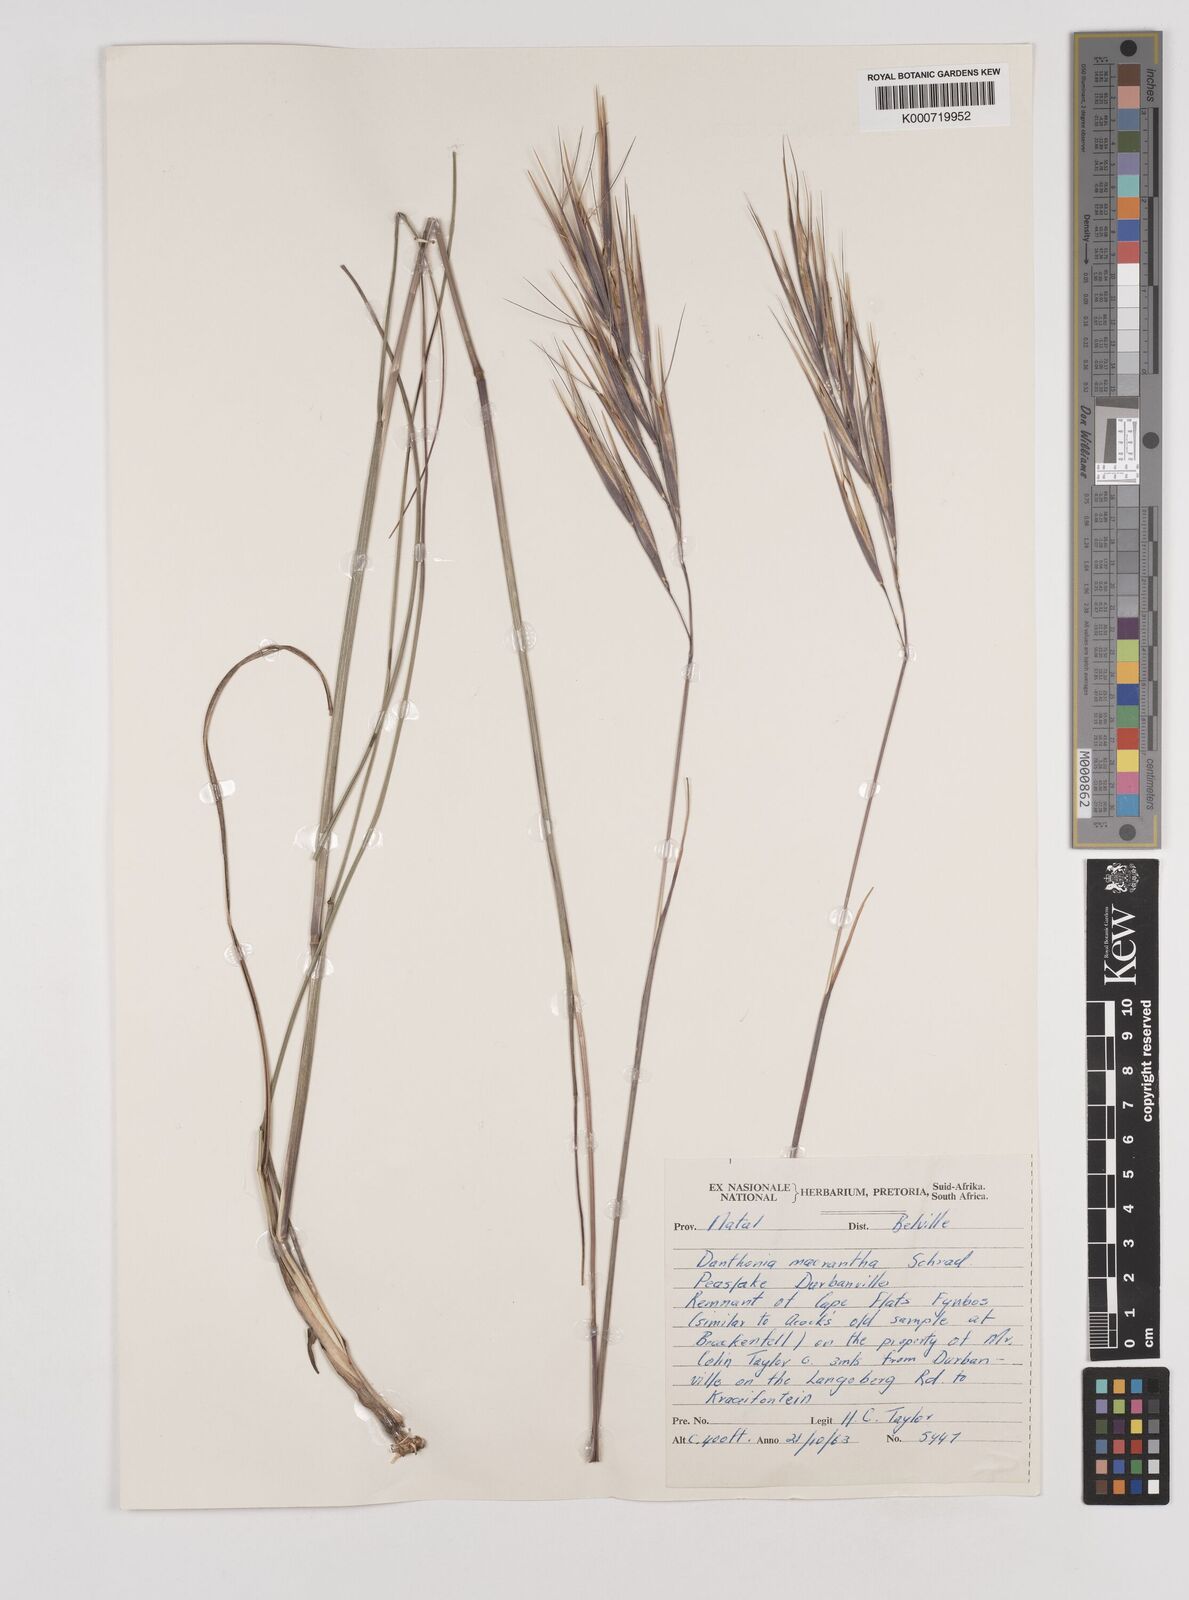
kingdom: Plantae
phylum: Tracheophyta
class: Liliopsida
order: Poales
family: Poaceae
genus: Pseudopentameris
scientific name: Pseudopentameris macrantha
